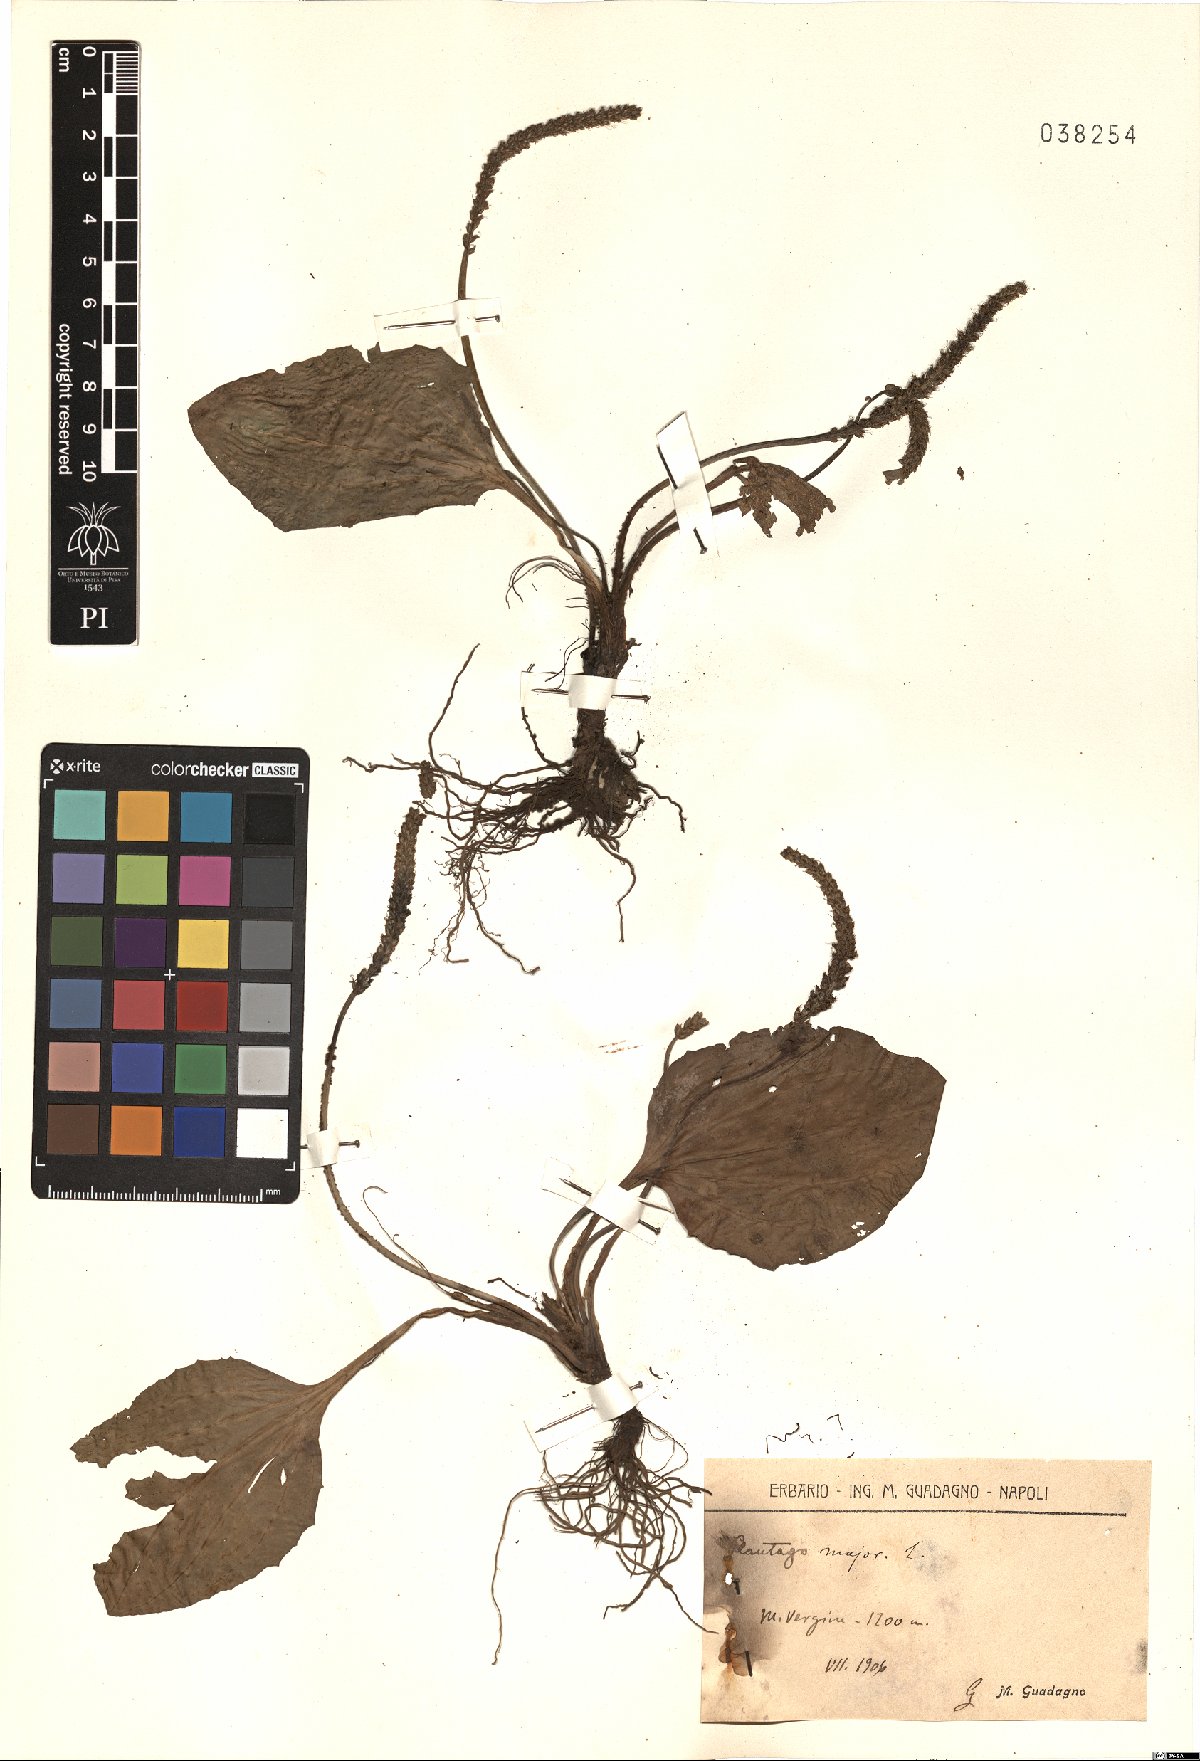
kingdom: Plantae
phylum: Tracheophyta
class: Magnoliopsida
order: Lamiales
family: Plantaginaceae
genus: Plantago
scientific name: Plantago major
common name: Common plantain
